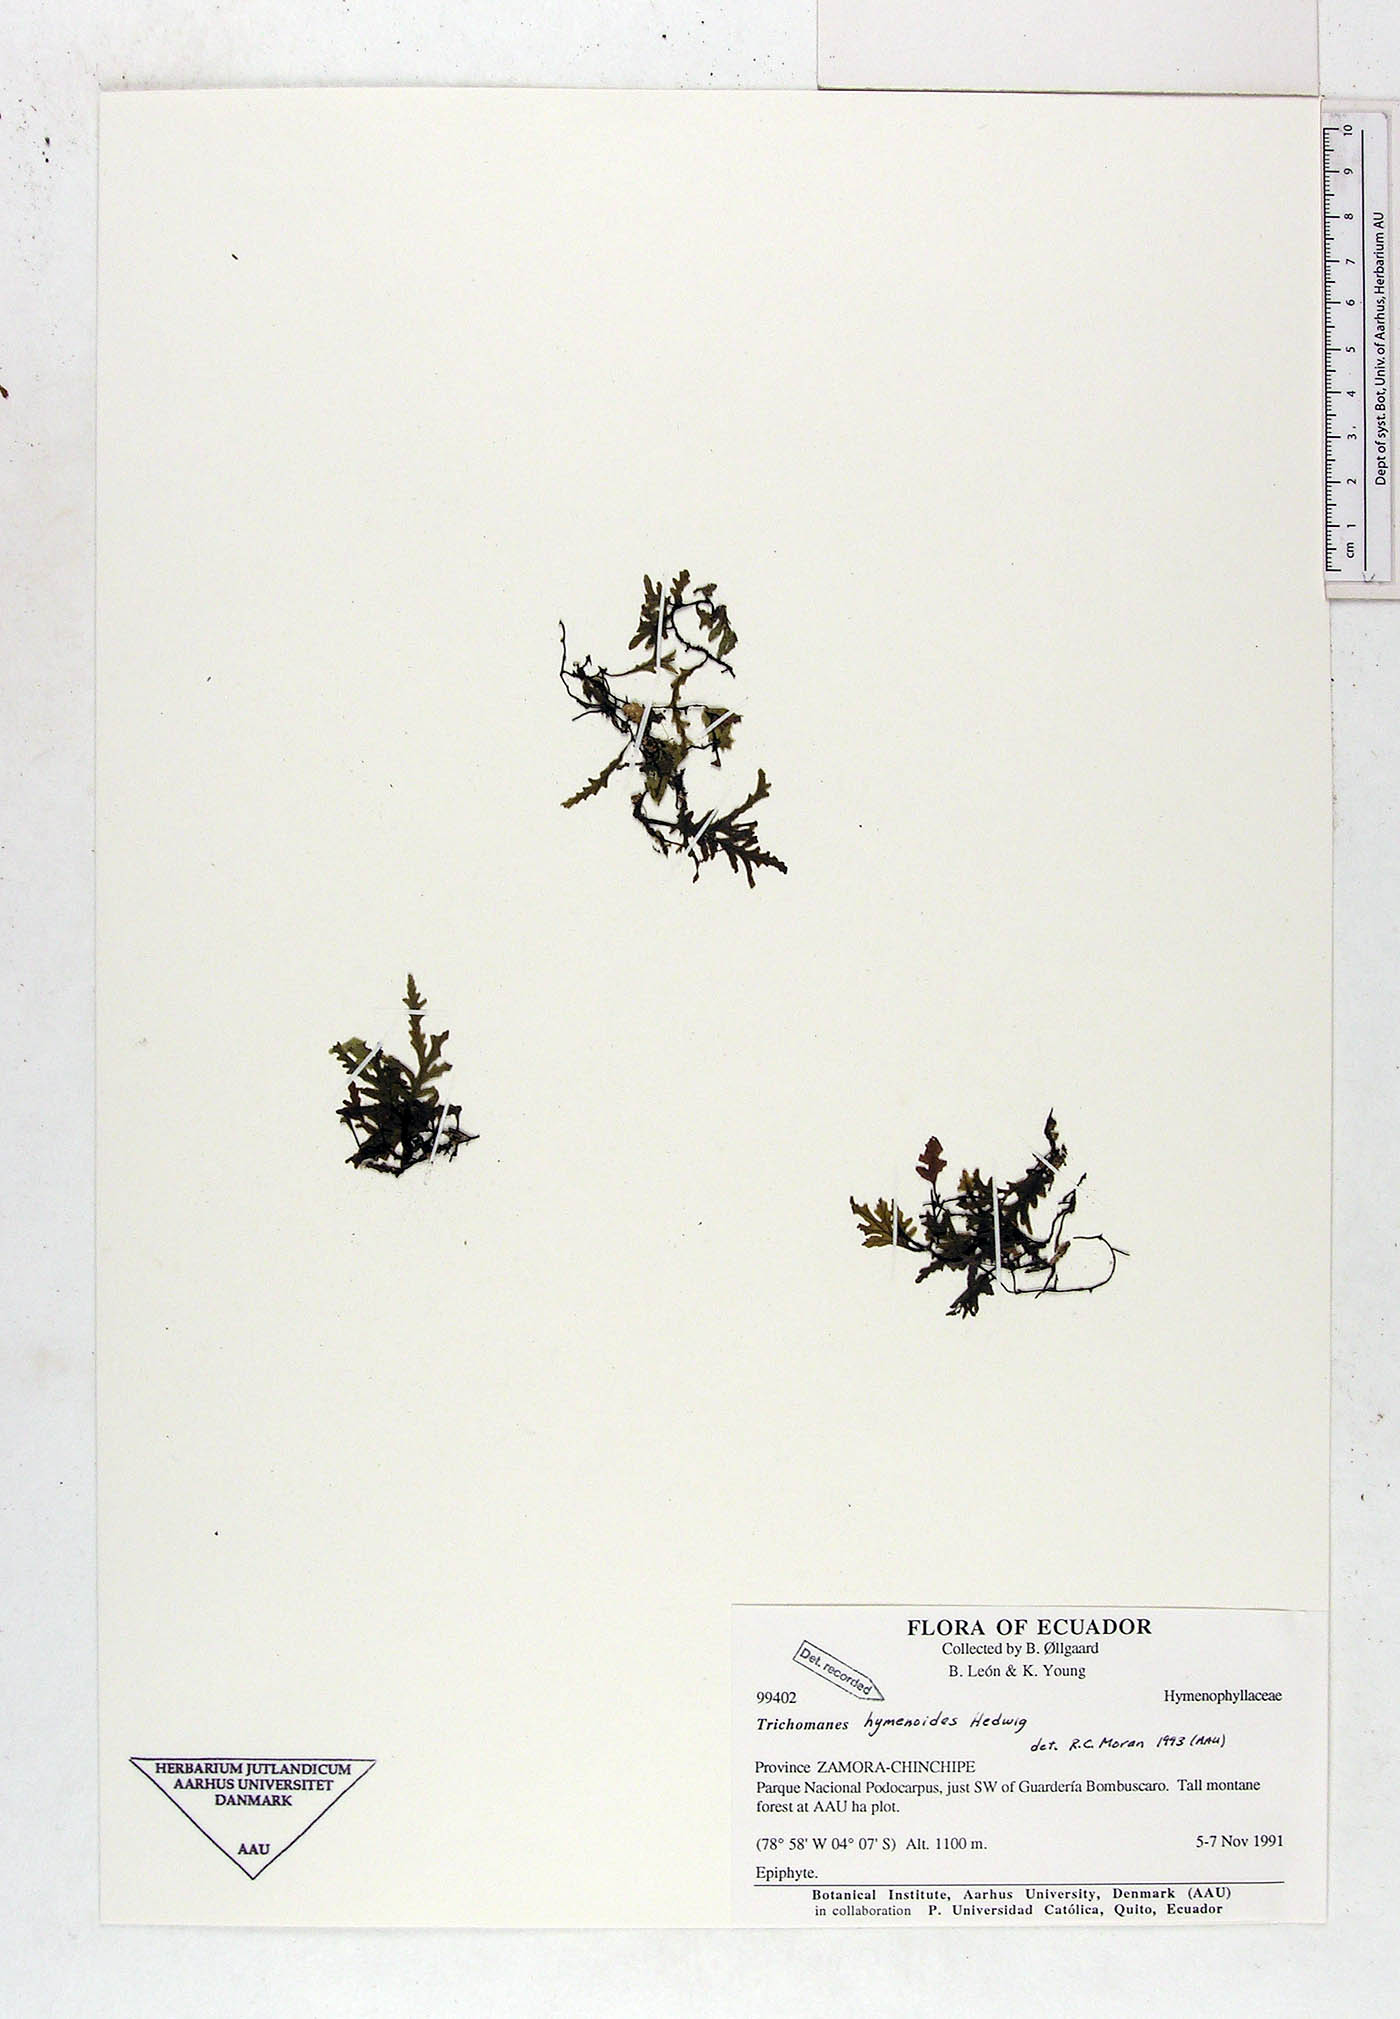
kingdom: Plantae
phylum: Tracheophyta
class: Polypodiopsida
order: Hymenophyllales
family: Hymenophyllaceae
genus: Didymoglossum
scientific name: Didymoglossum hymenoides
